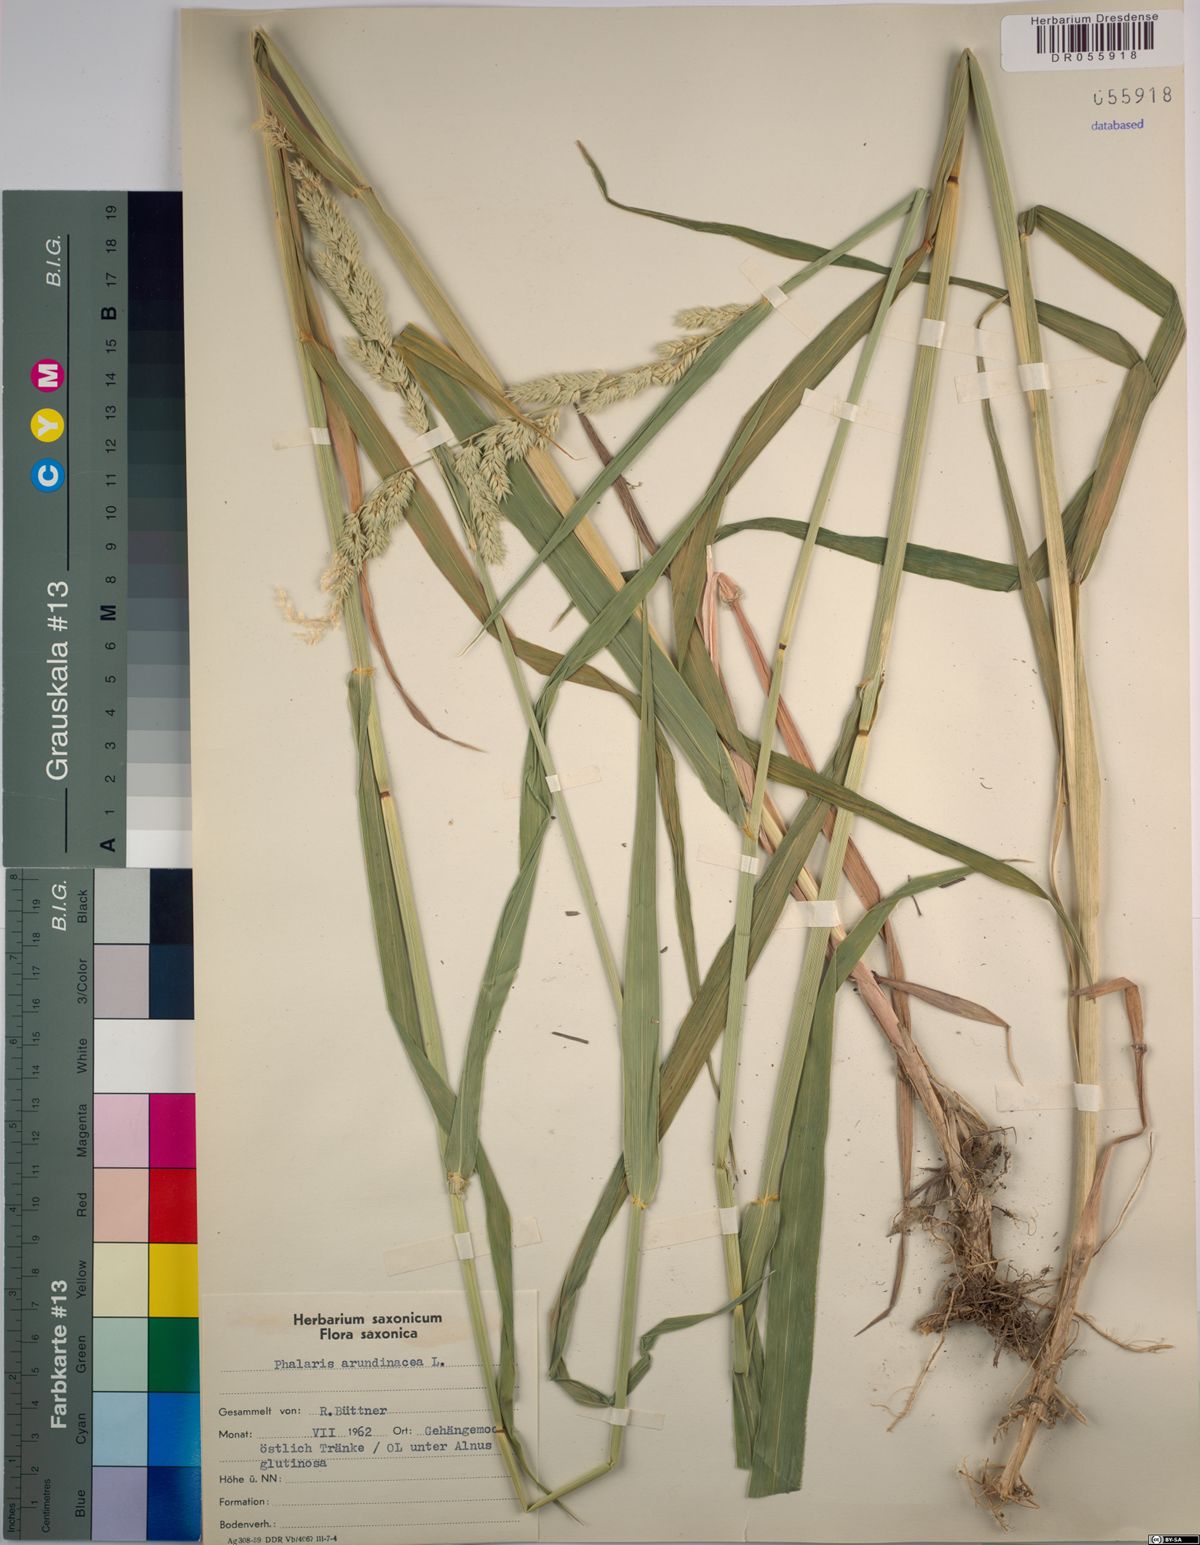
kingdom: Plantae
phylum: Tracheophyta
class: Liliopsida
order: Poales
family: Poaceae
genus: Phalaris
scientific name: Phalaris arundinacea
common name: Reed canary-grass
